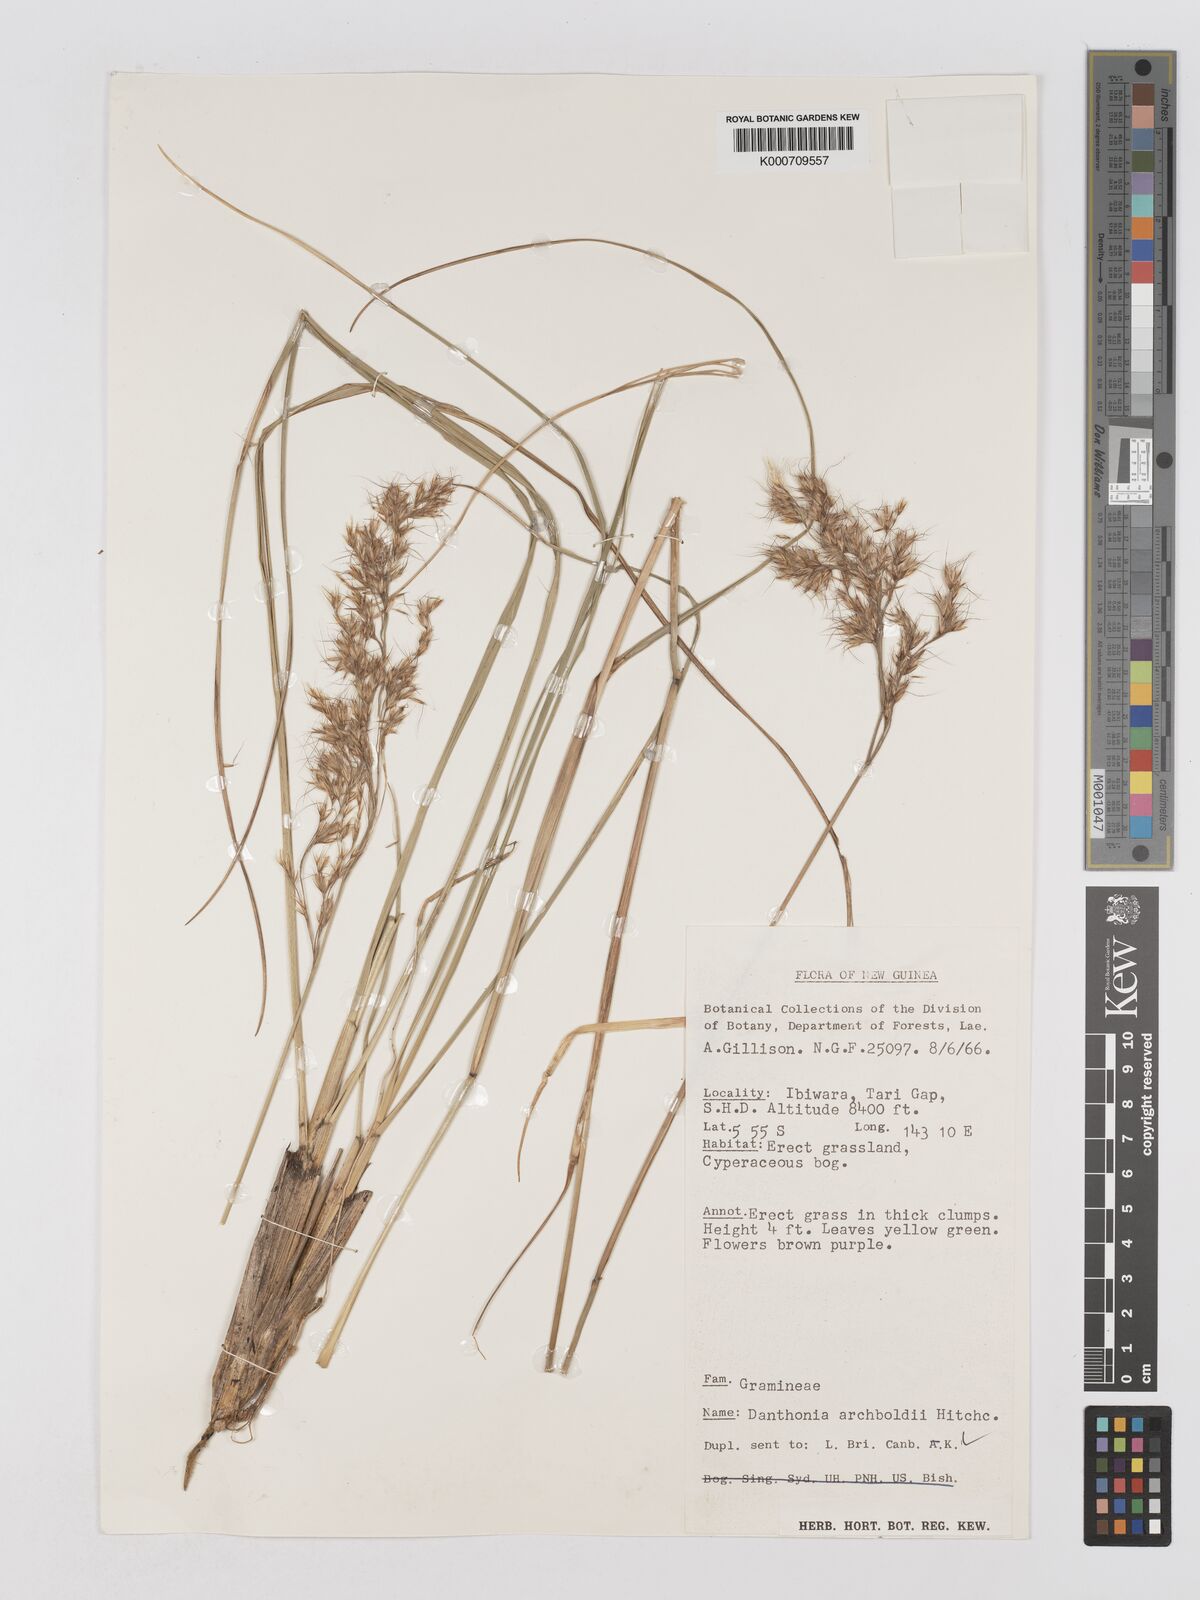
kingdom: Plantae
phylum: Tracheophyta
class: Liliopsida
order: Poales
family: Poaceae
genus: Chimaerochloa
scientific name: Chimaerochloa archboldii
